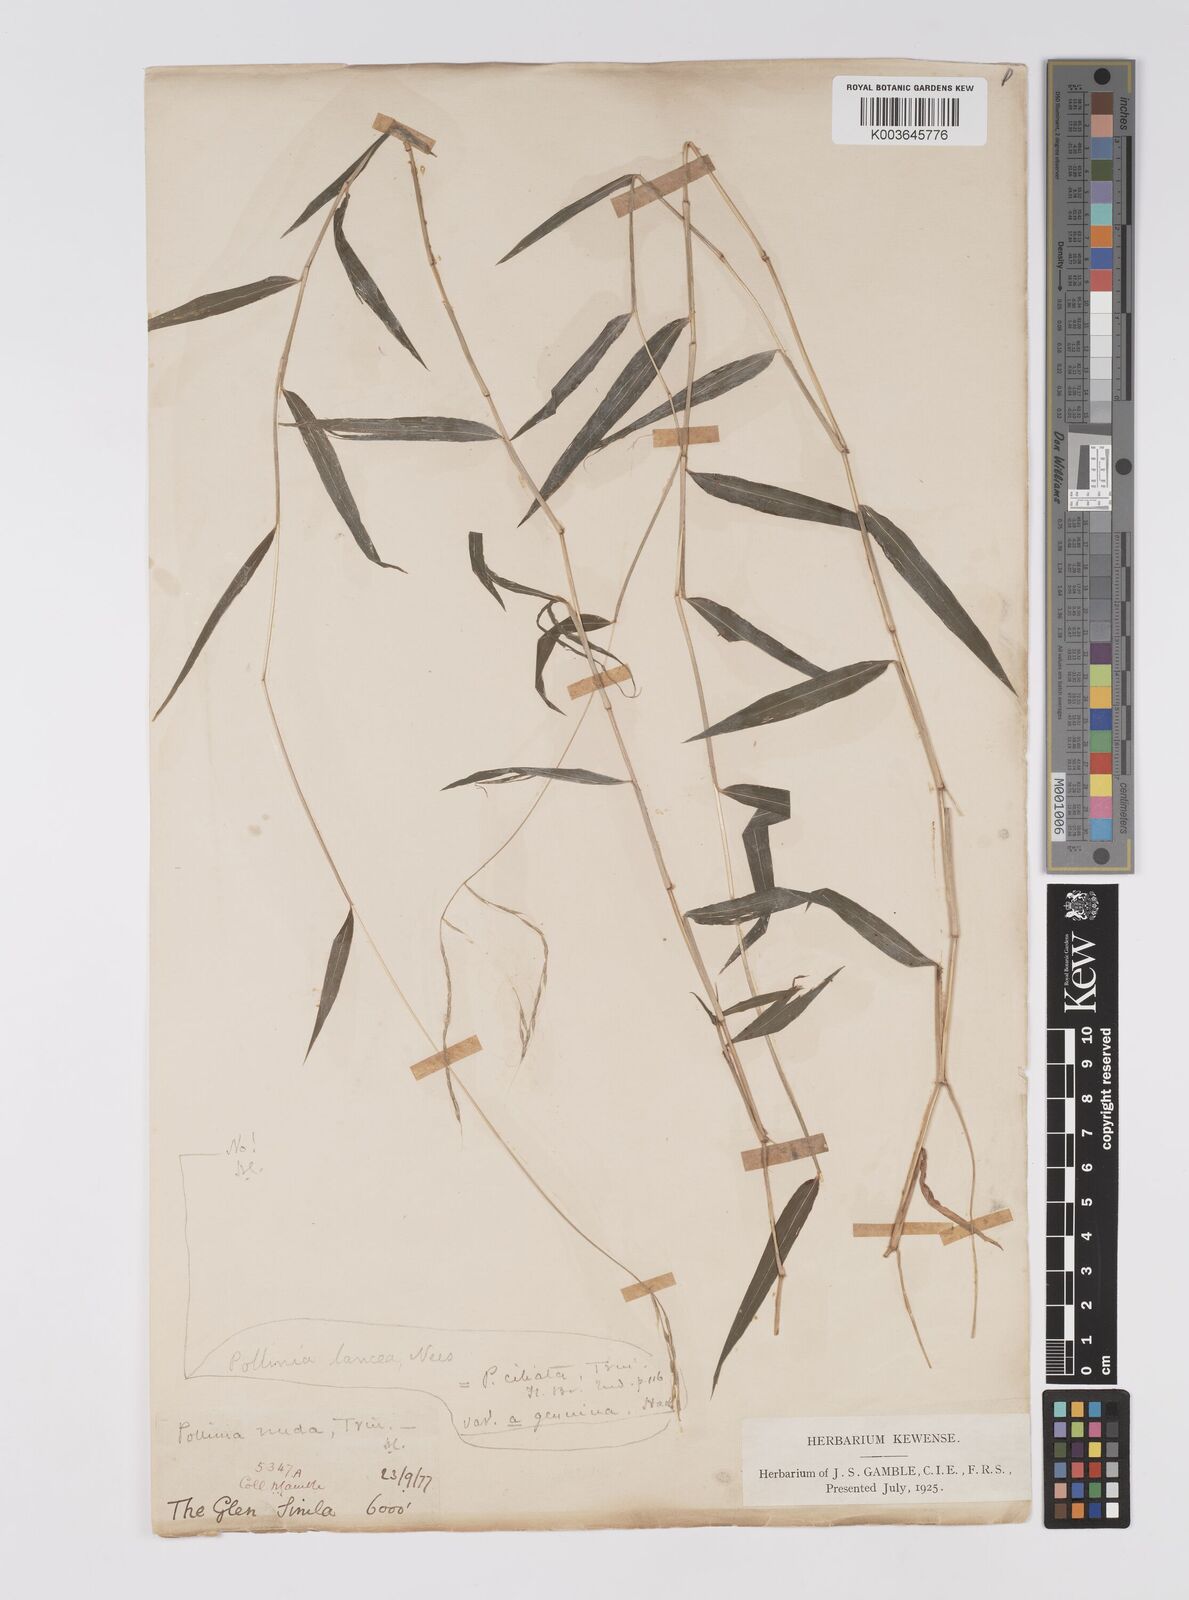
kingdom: Plantae
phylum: Tracheophyta
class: Liliopsida
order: Poales
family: Poaceae
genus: Microstegium
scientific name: Microstegium nudum
